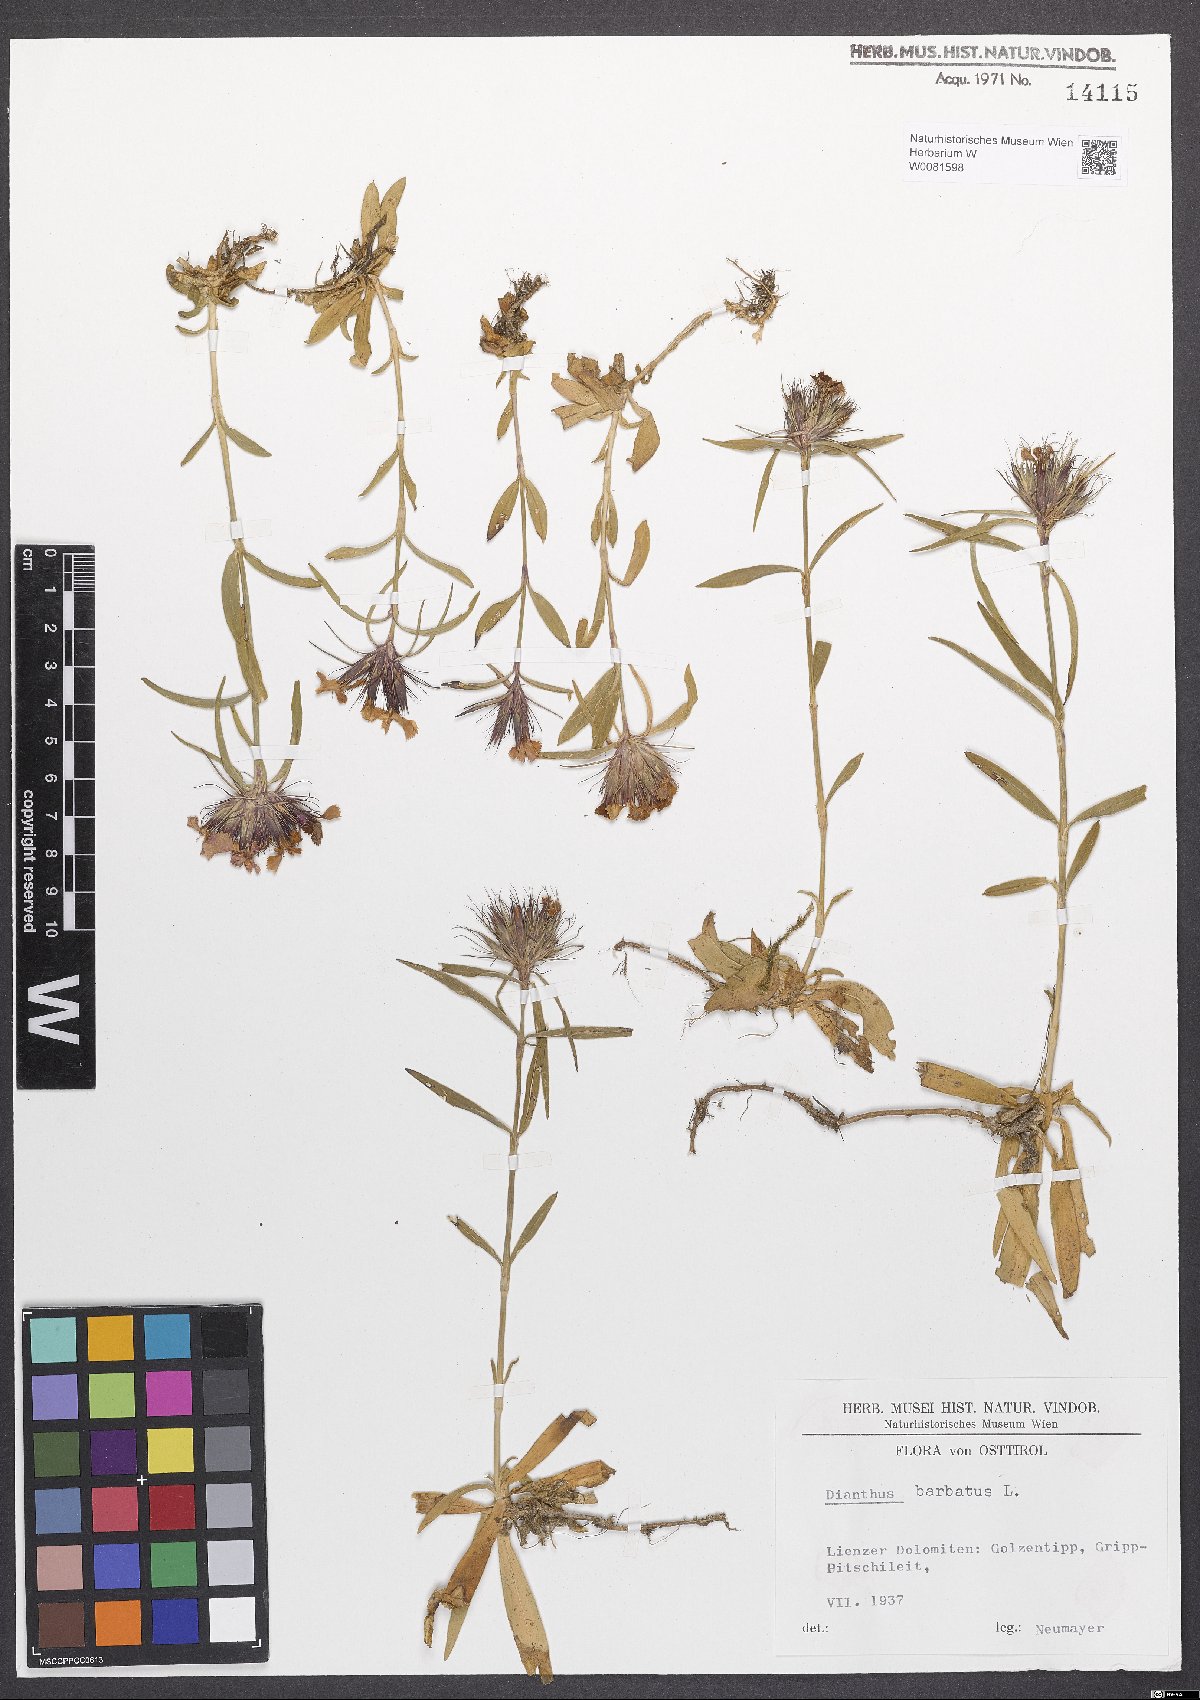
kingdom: Plantae
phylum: Tracheophyta
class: Magnoliopsida
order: Caryophyllales
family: Caryophyllaceae
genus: Dianthus
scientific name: Dianthus barbatus
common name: Sweet-william
